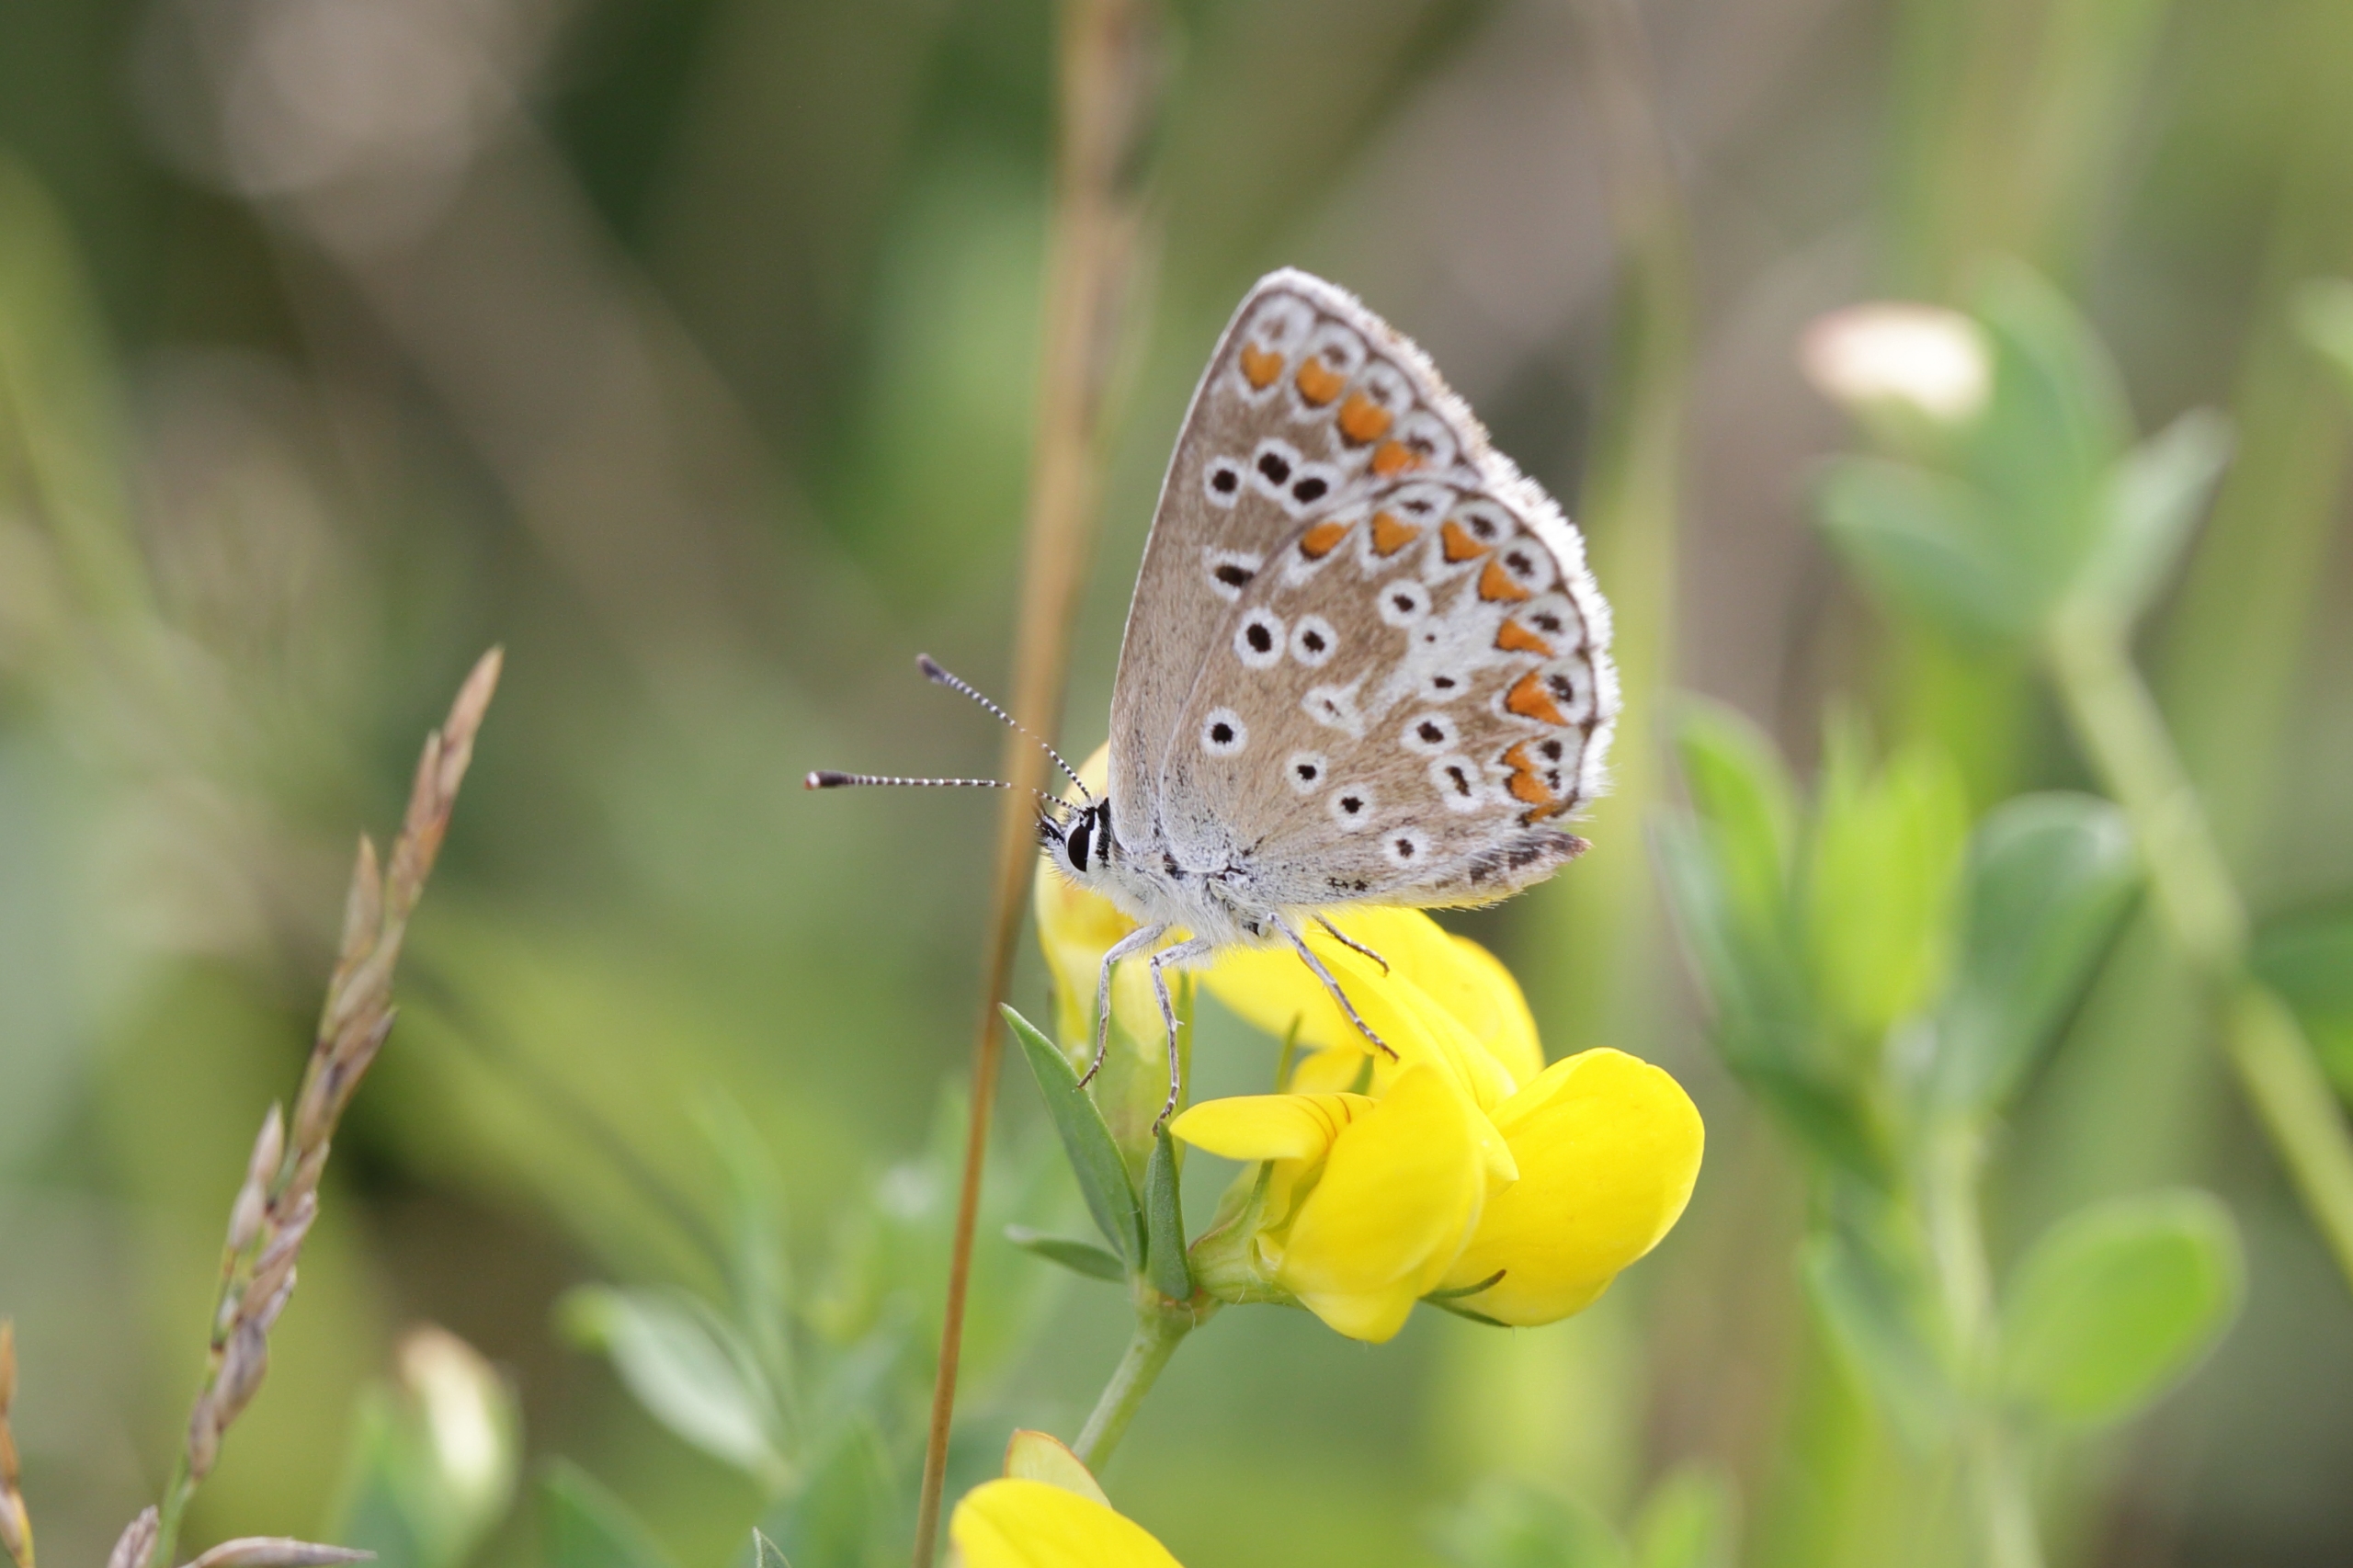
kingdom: Animalia
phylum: Arthropoda
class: Insecta
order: Lepidoptera
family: Lycaenidae
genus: Aricia
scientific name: Aricia agestis
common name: Rødplettet blåfugl
